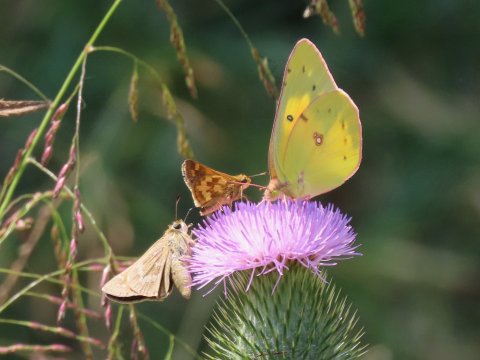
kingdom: Animalia
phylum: Arthropoda
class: Insecta
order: Lepidoptera
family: Hesperiidae
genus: Polites
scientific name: Polites coras
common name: Peck's Skipper
